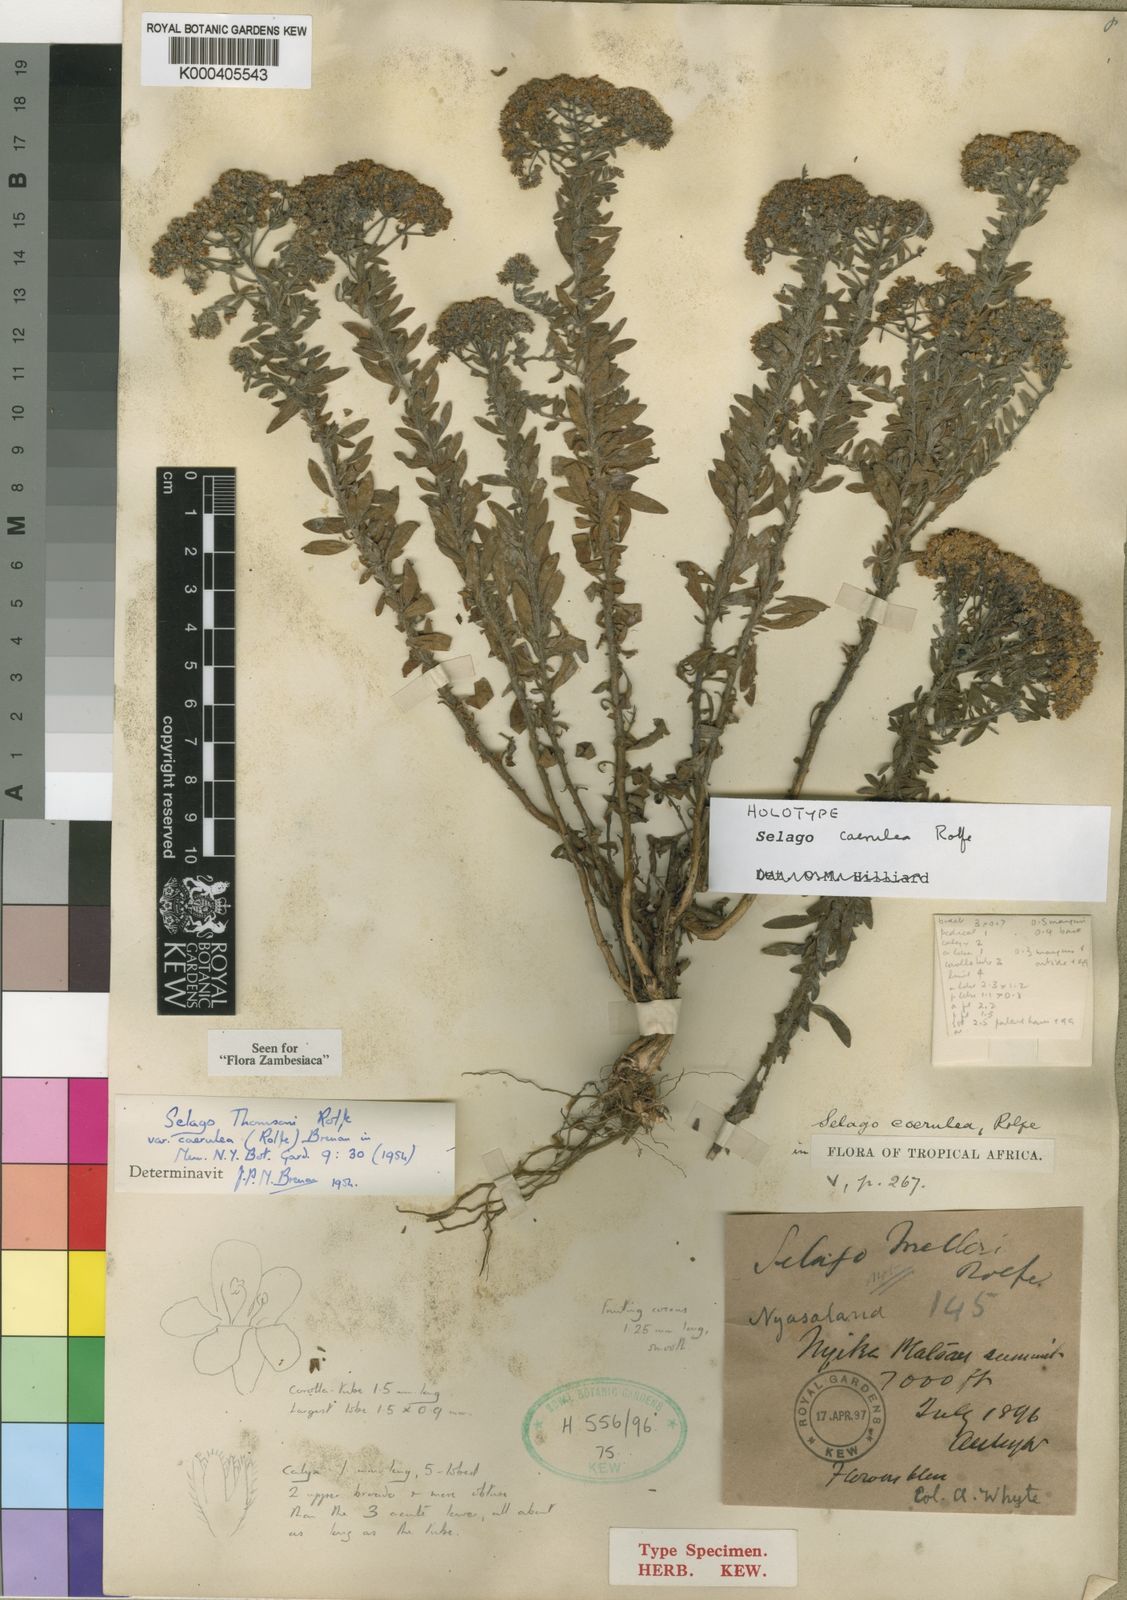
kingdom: Plantae
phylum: Tracheophyta
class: Magnoliopsida
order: Lamiales
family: Scrophulariaceae
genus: Selago
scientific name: Selago
